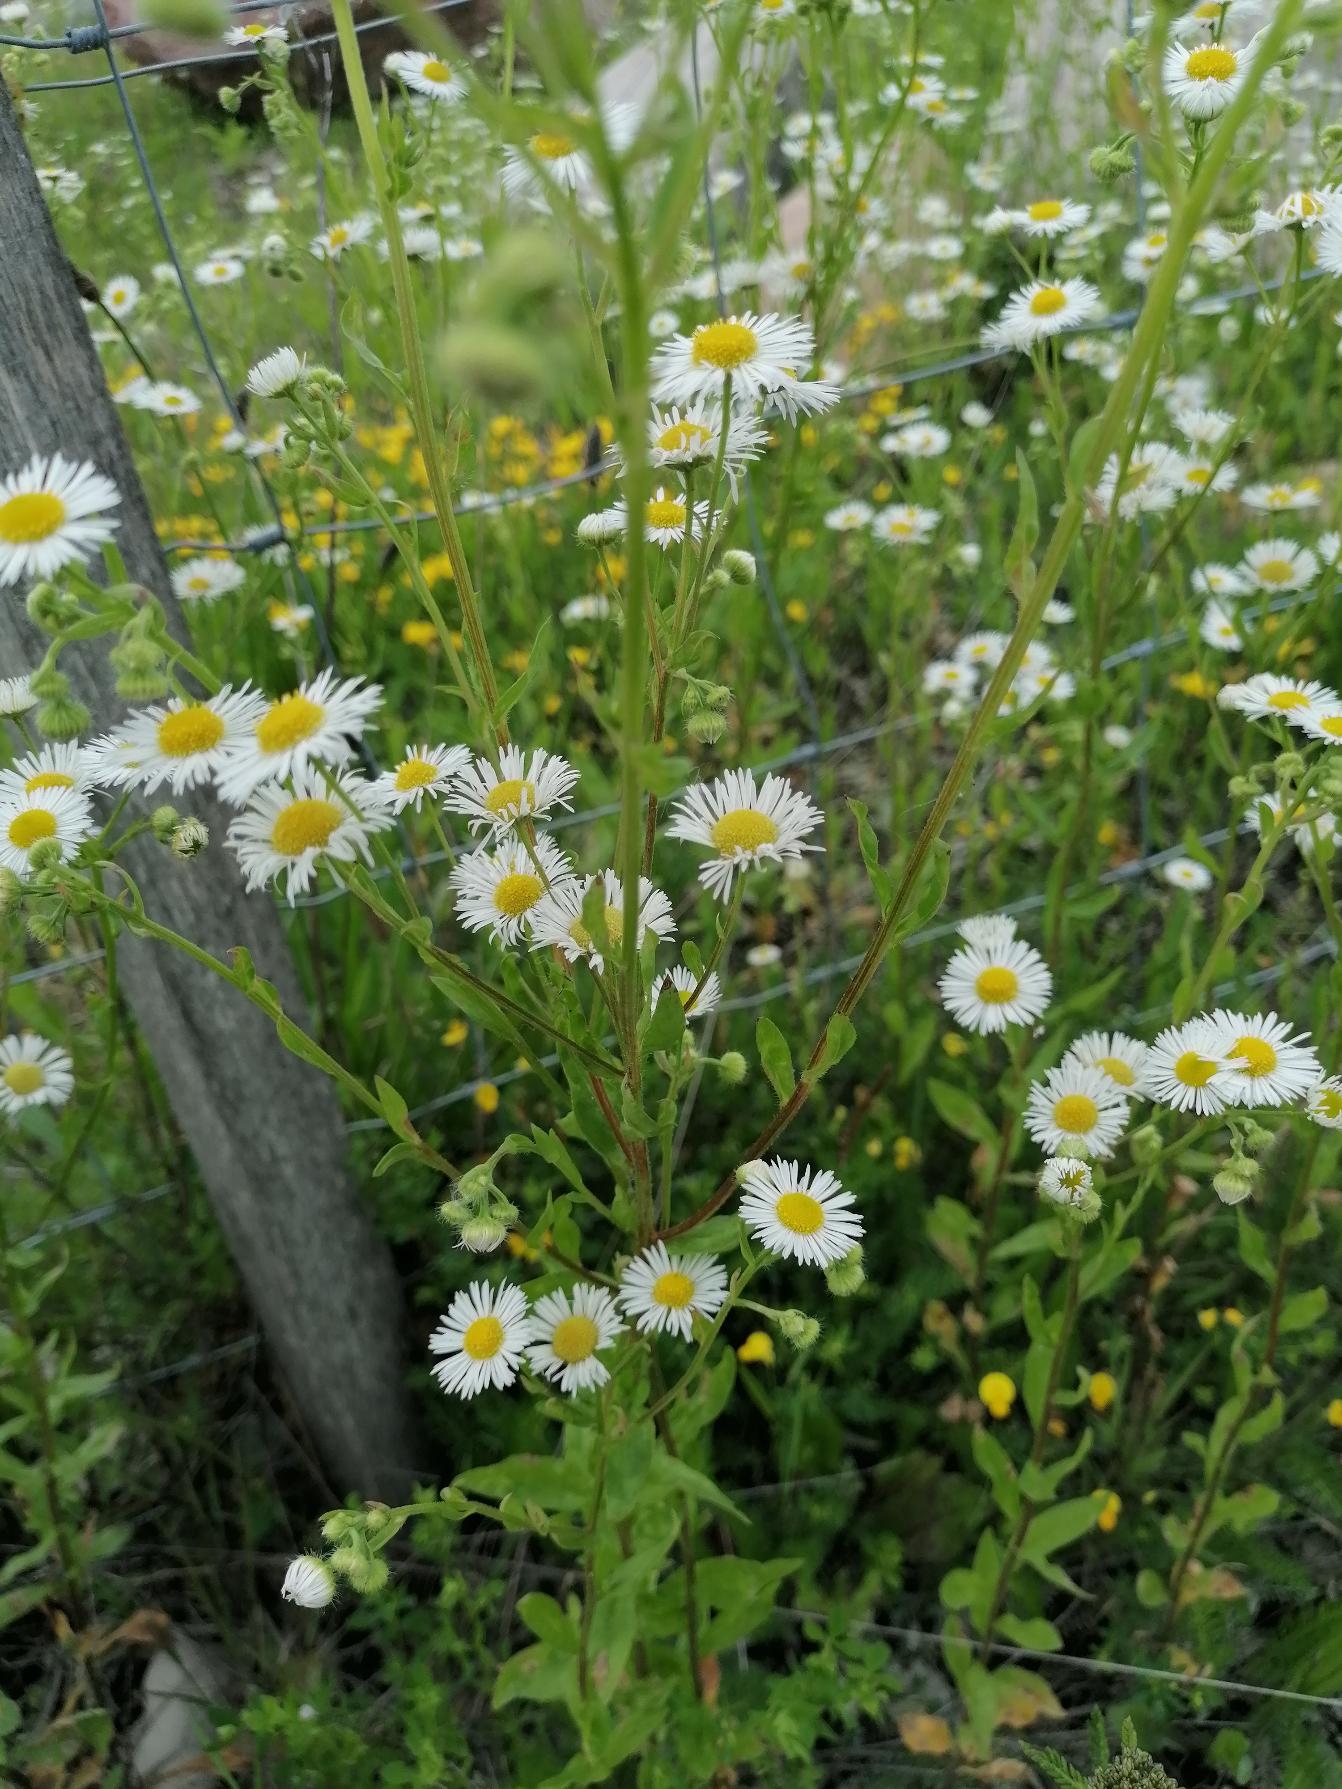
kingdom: Plantae
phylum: Tracheophyta
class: Magnoliopsida
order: Asterales
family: Asteraceae
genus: Erigeron
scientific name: Erigeron annuus
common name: Smalstråle
